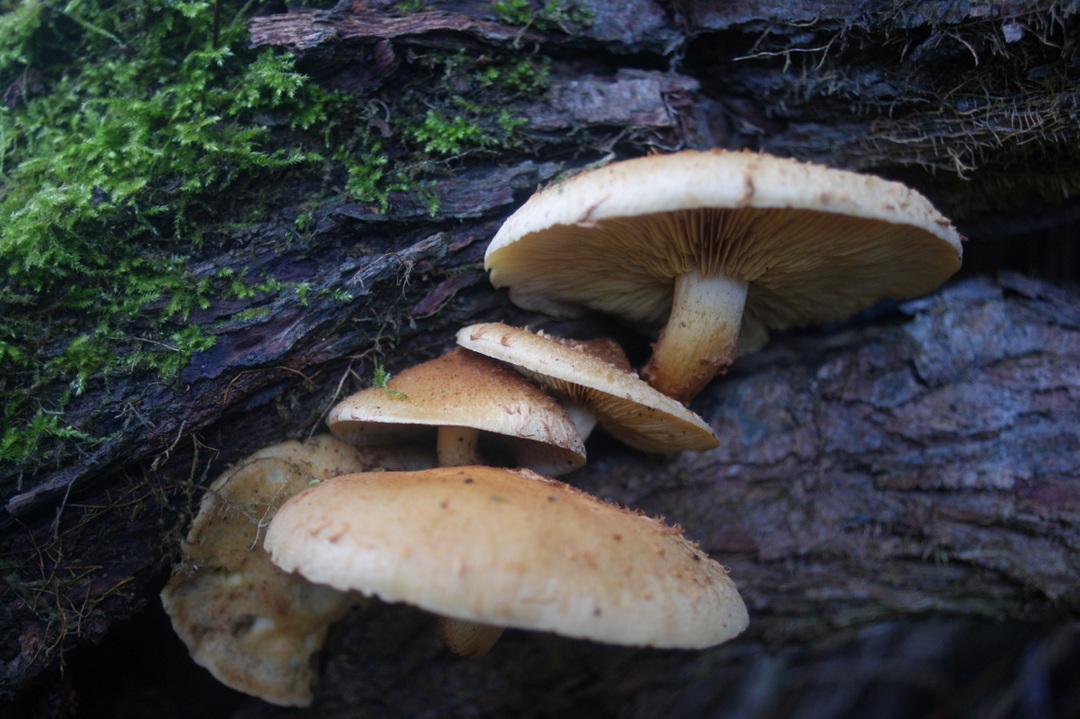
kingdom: Fungi
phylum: Basidiomycota
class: Agaricomycetes
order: Agaricales
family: Strophariaceae
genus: Pholiota
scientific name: Pholiota squarrosa
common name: krumskællet skælhat
